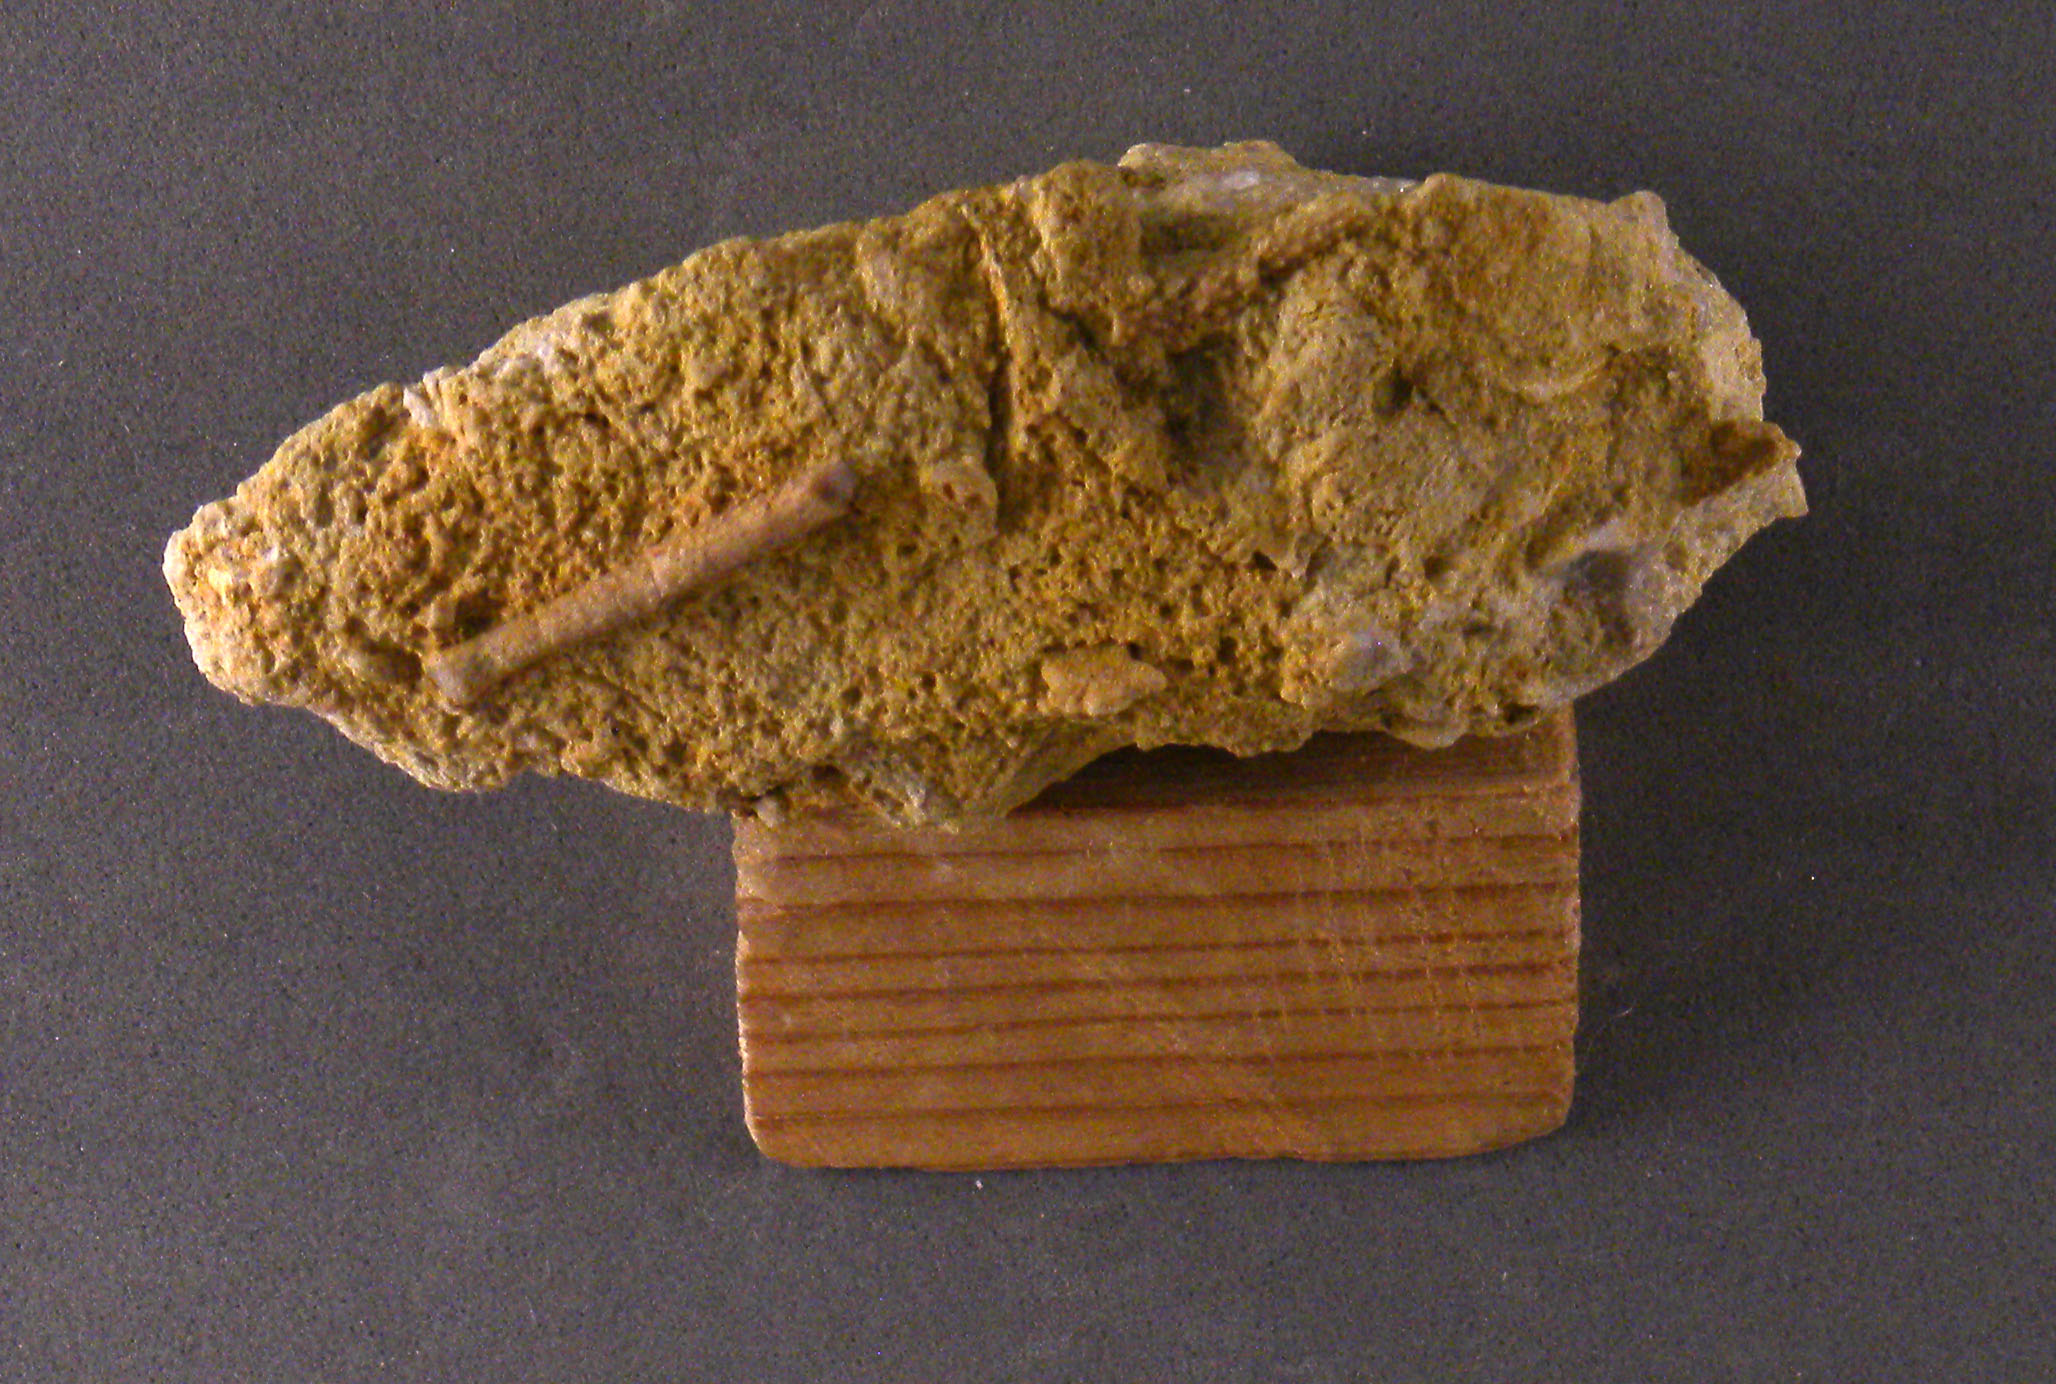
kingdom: Animalia
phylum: Echinodermata
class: Echinoidea
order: Cidaroida
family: Polycidaridae
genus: Anisocidaris
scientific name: Anisocidaris
